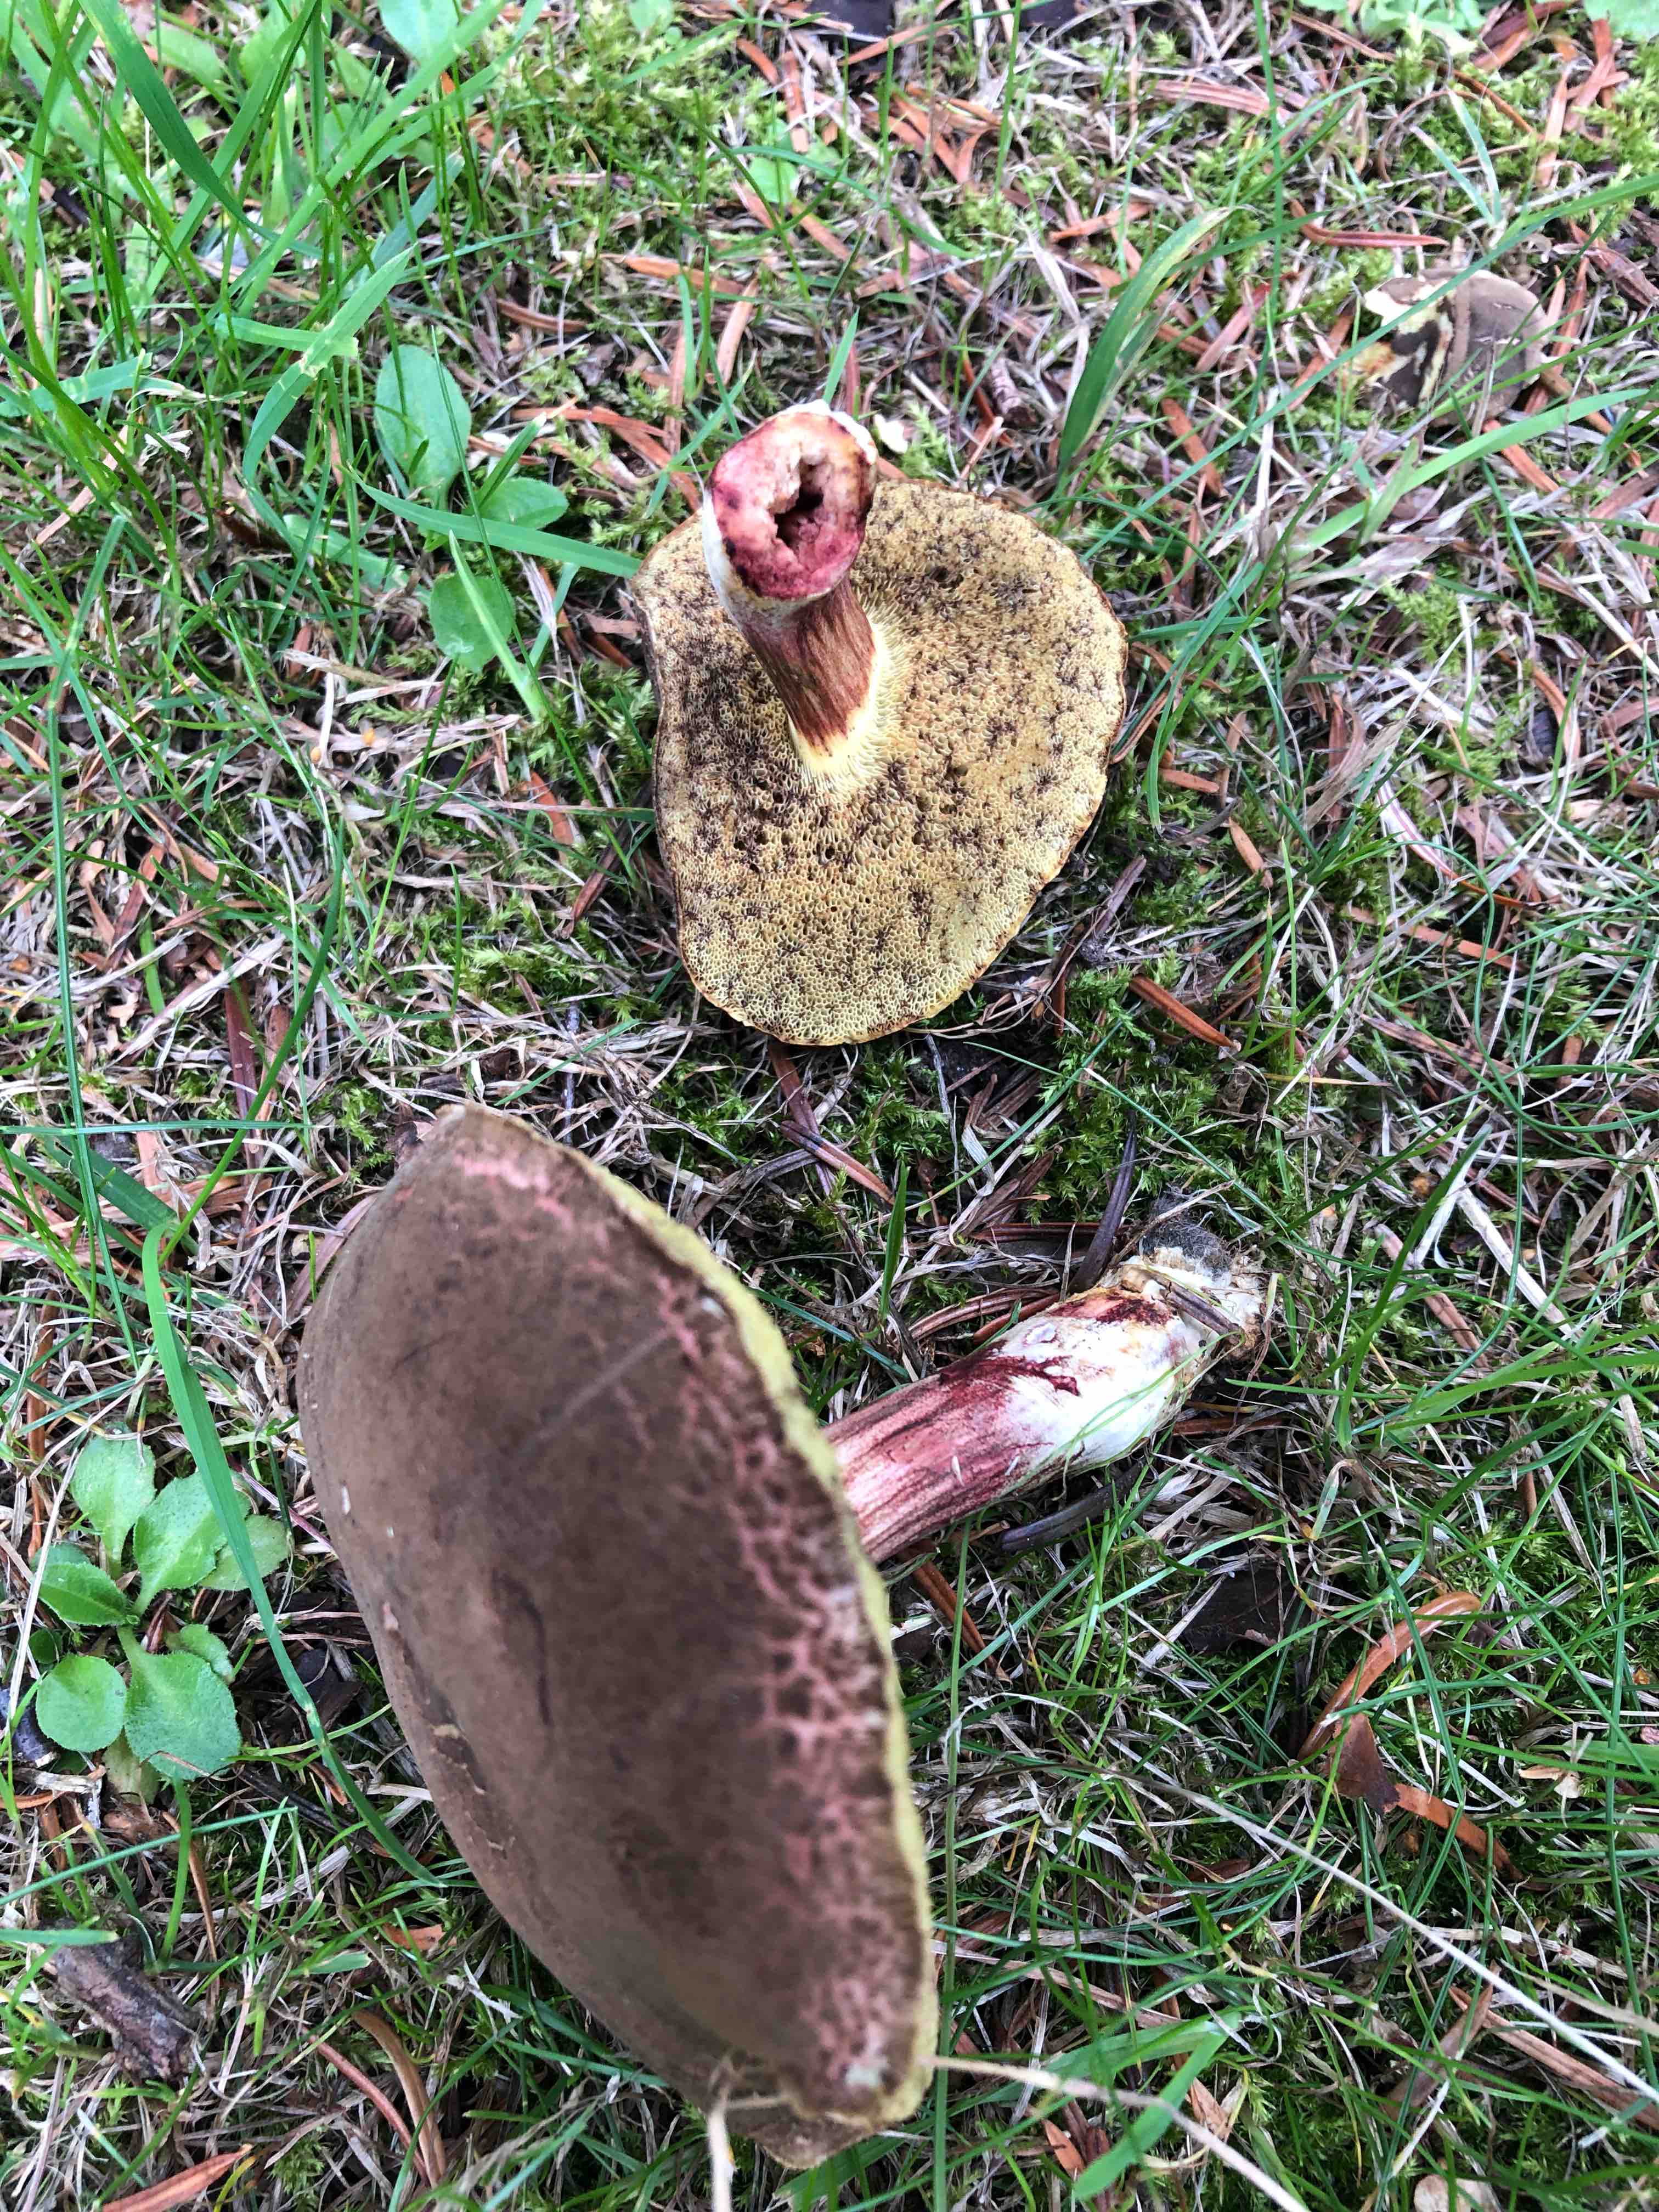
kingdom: Fungi
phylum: Basidiomycota
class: Agaricomycetes
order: Boletales
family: Boletaceae
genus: Xerocomellus
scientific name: Xerocomellus chrysenteron
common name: rødsprukken rørhat
